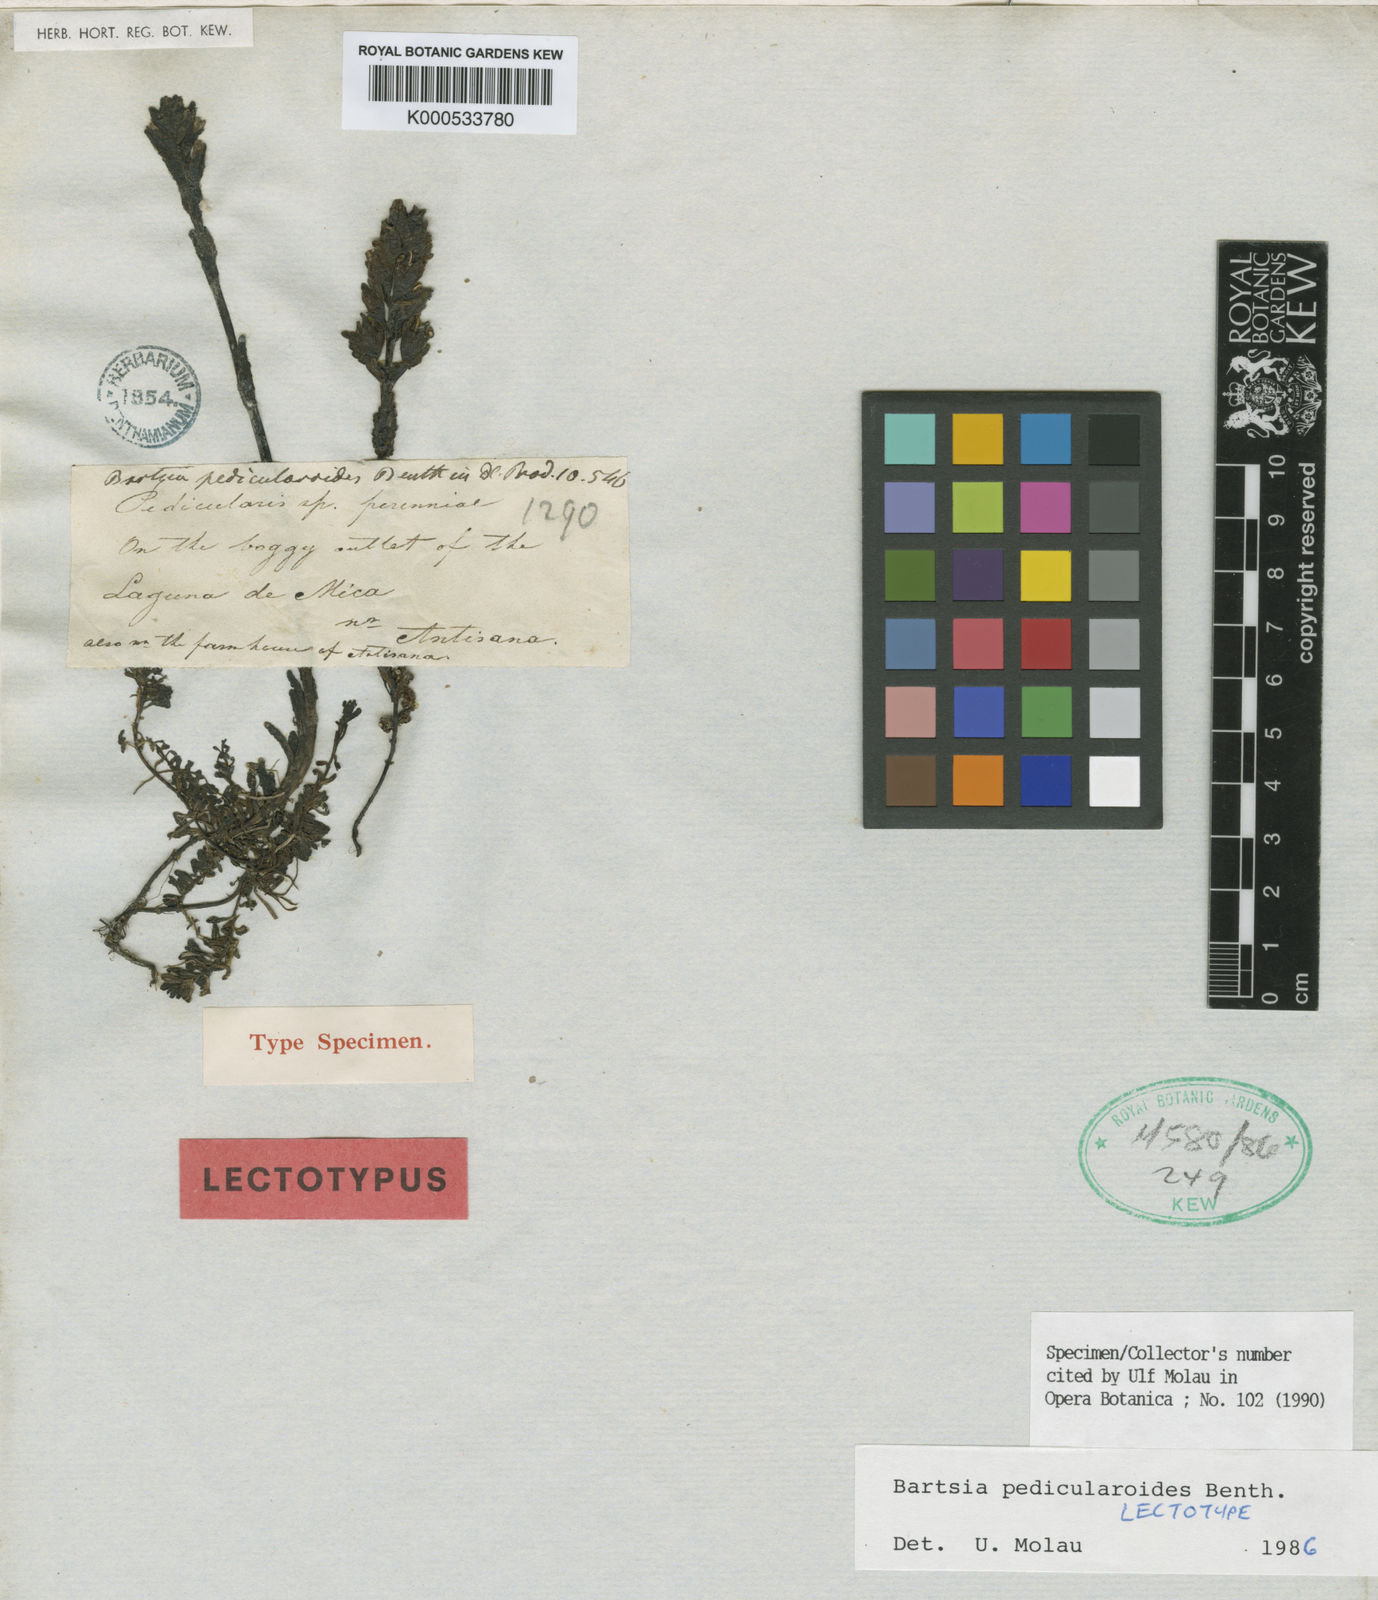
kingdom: Plantae
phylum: Tracheophyta
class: Magnoliopsida
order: Lamiales
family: Orobanchaceae
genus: Neobartsia
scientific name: Neobartsia pedicularoides
